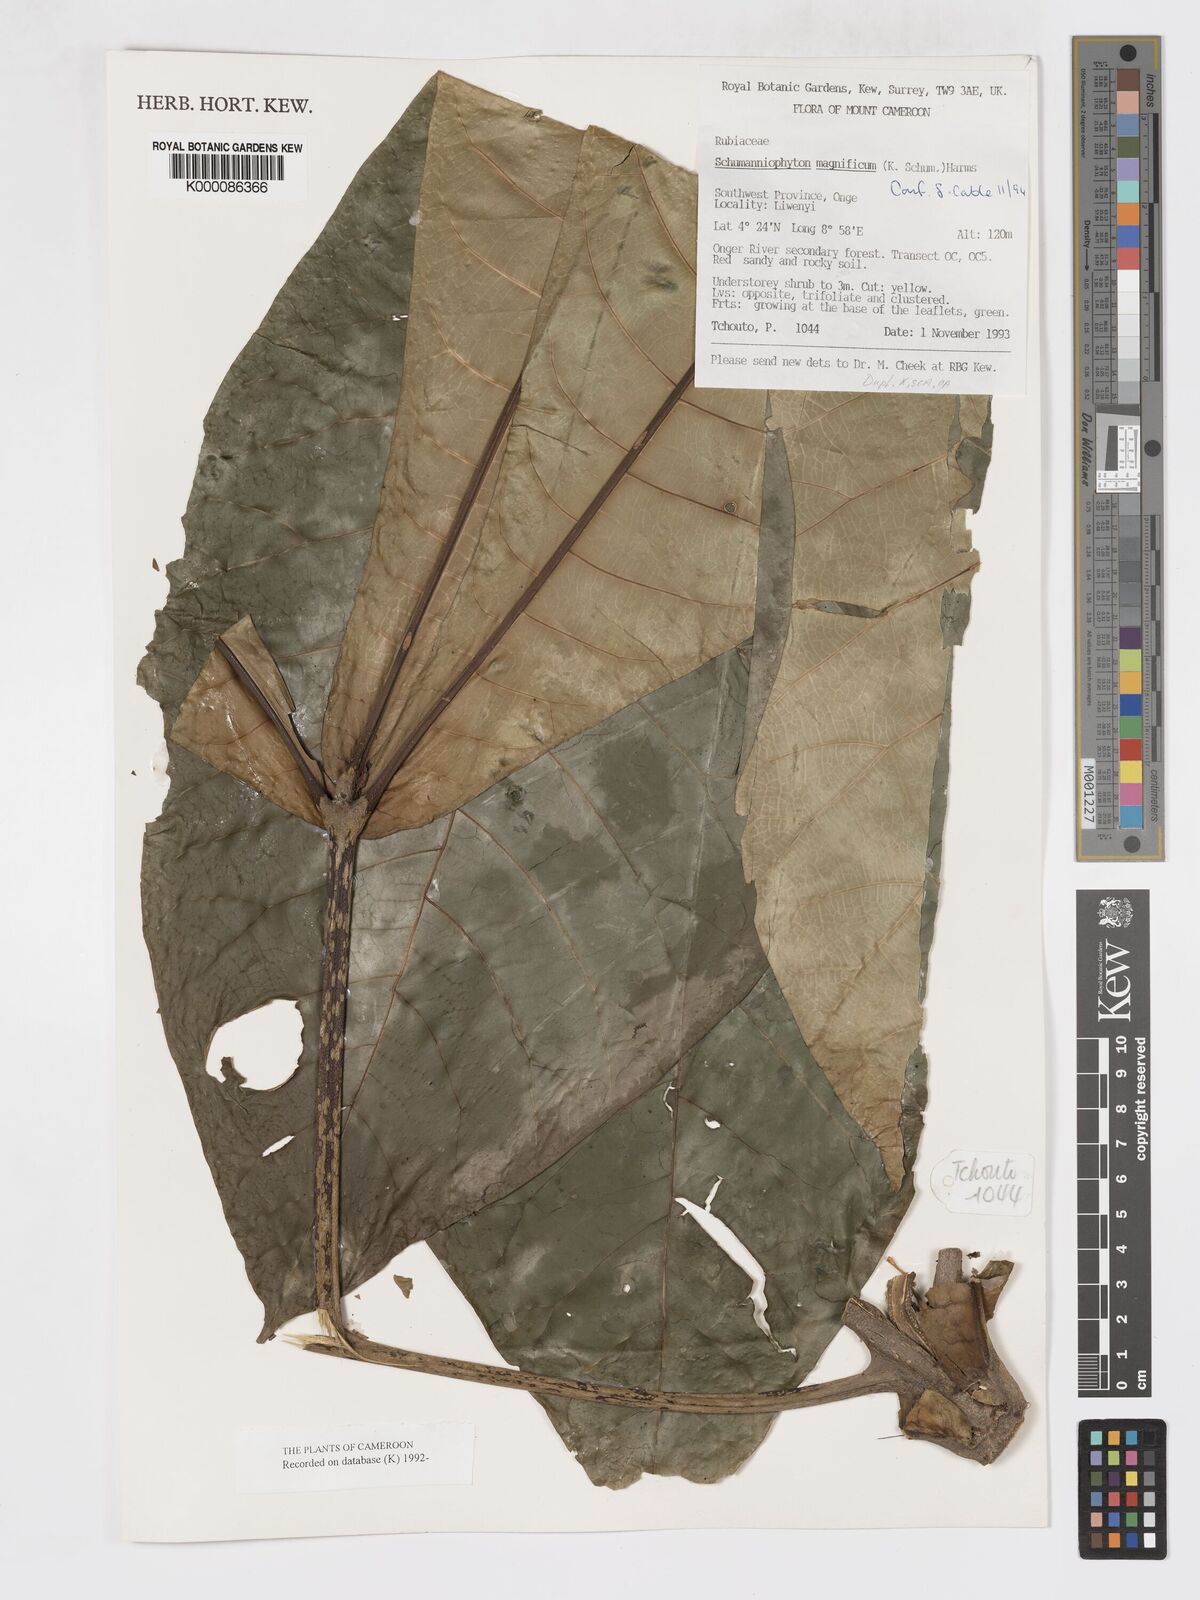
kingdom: Plantae
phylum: Tracheophyta
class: Magnoliopsida
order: Gentianales
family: Rubiaceae
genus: Schumanniophyton
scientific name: Schumanniophyton magnificum
